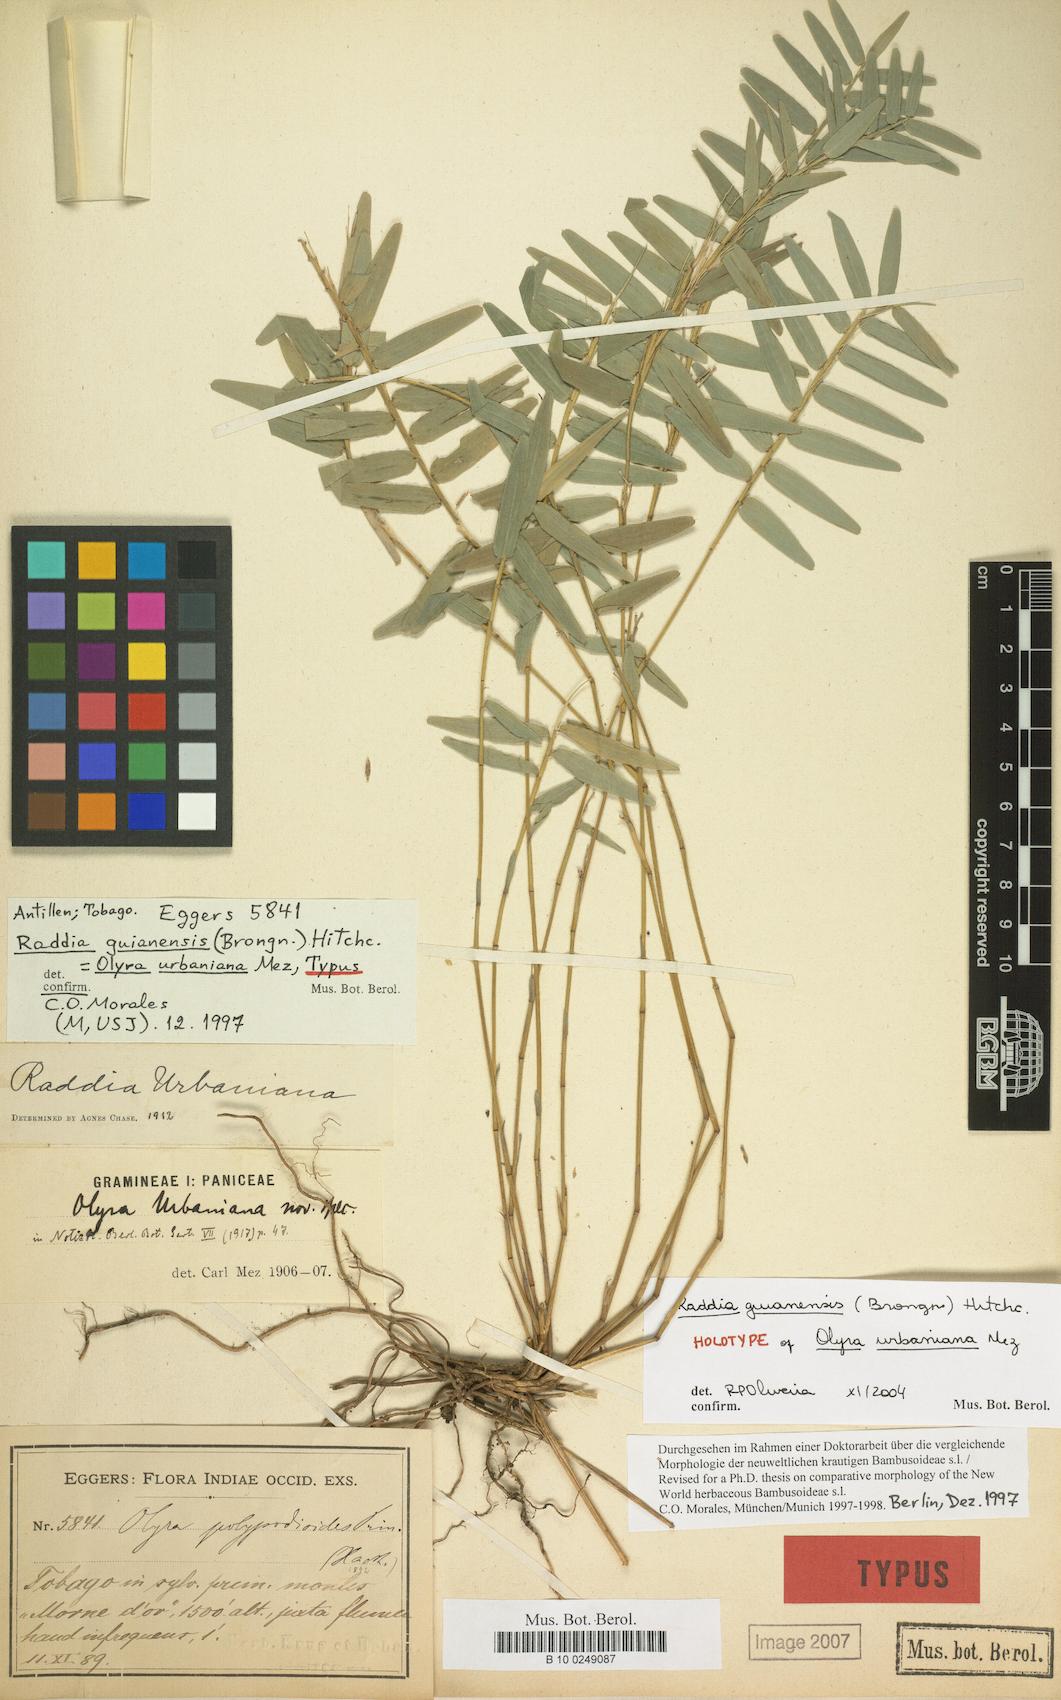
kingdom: Plantae
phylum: Tracheophyta
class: Liliopsida
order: Poales
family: Poaceae
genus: Raddia
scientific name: Raddia guianensis
